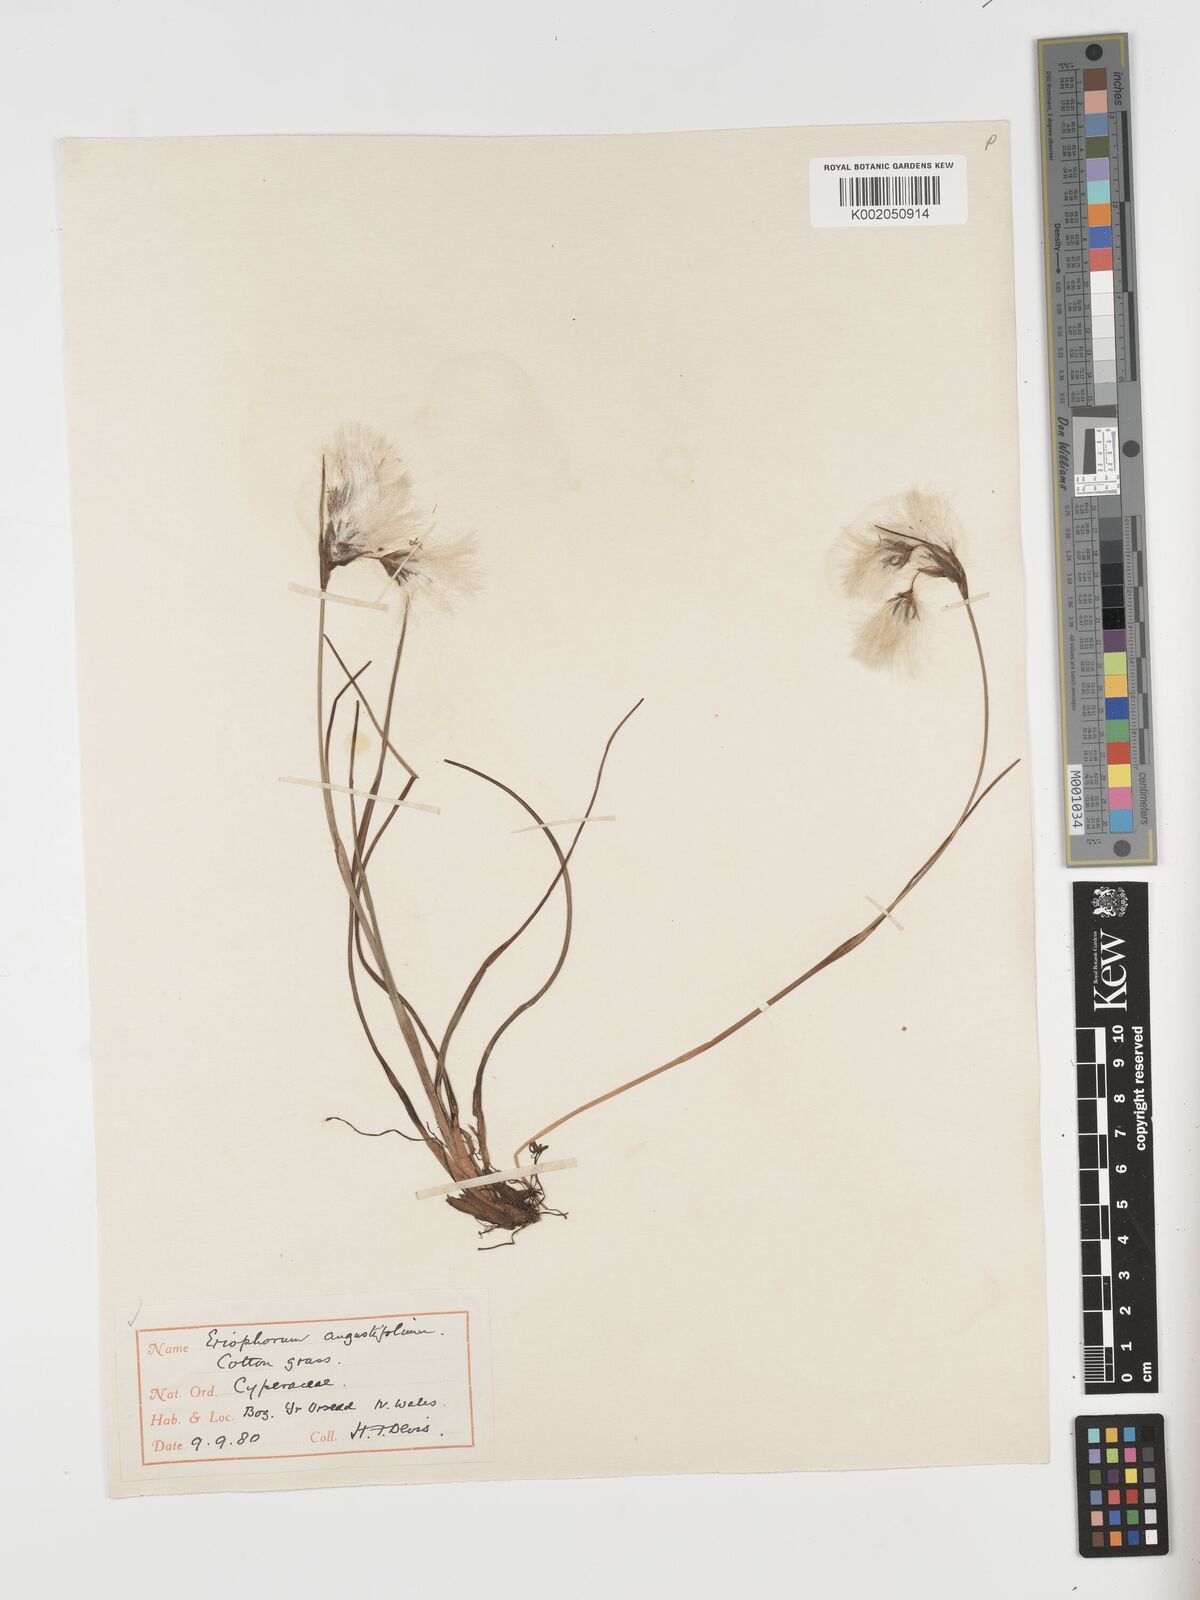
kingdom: Plantae
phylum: Tracheophyta
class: Liliopsida
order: Poales
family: Cyperaceae
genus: Eriophorum
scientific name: Eriophorum angustifolium
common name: Common cottongrass
